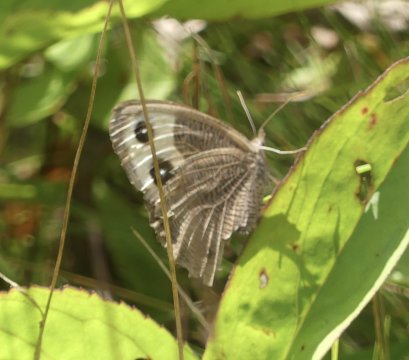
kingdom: Animalia
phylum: Arthropoda
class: Insecta
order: Lepidoptera
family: Nymphalidae
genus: Cercyonis
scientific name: Cercyonis pegala
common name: Common Wood-Nymph
